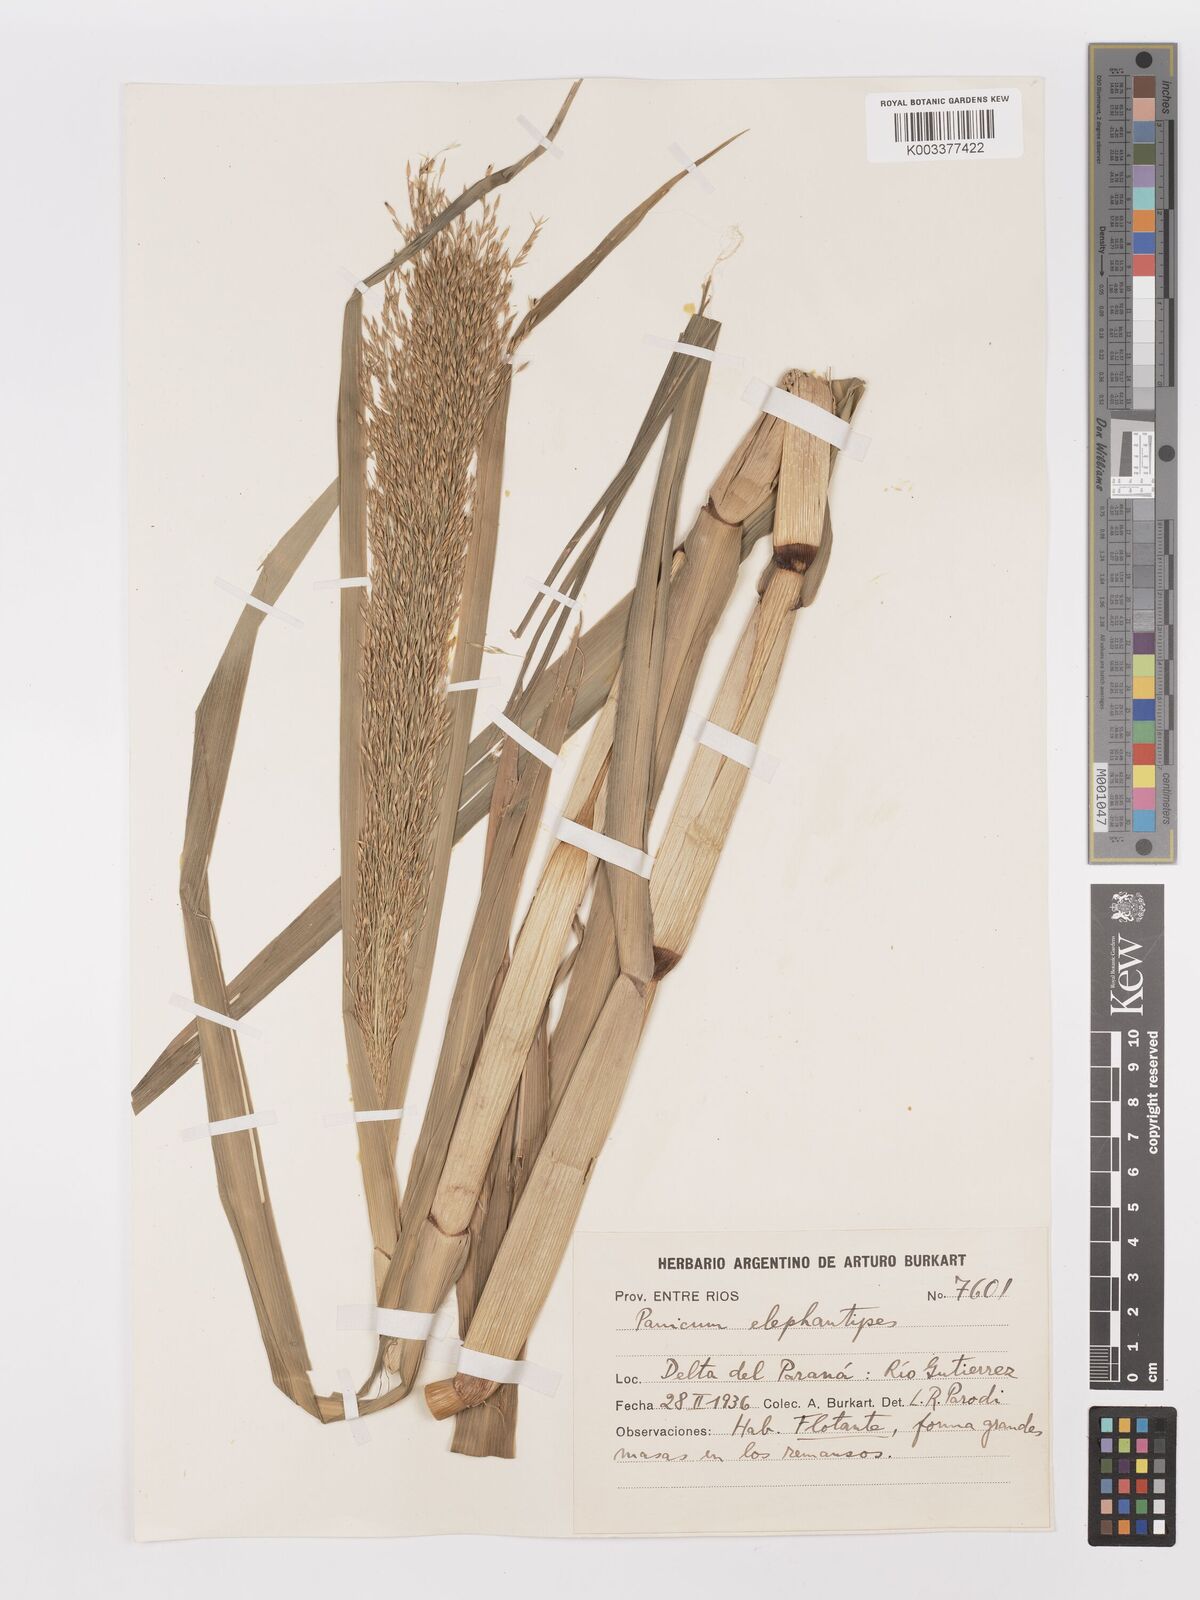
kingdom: Plantae
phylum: Tracheophyta
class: Liliopsida
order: Poales
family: Poaceae
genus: Louisiella
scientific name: Louisiella elephantipes
